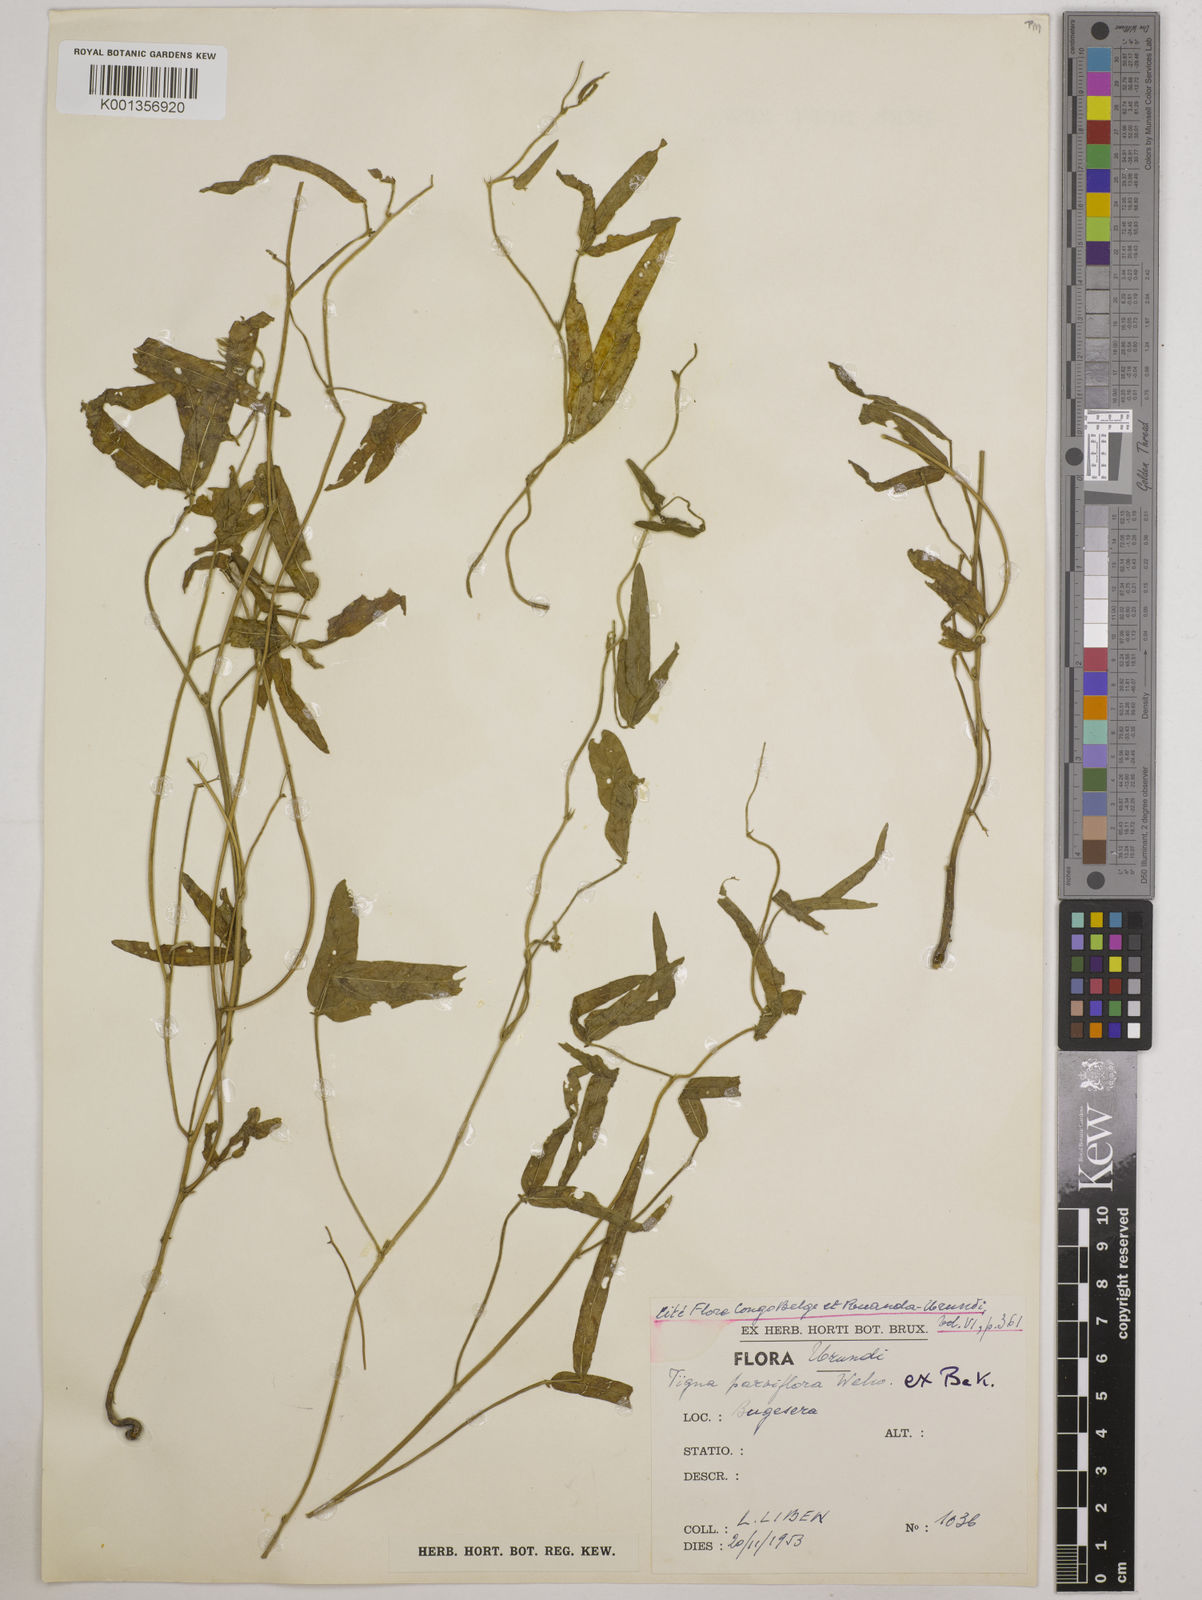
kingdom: Plantae
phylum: Tracheophyta
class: Magnoliopsida
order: Fabales
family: Fabaceae
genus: Vigna
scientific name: Vigna
